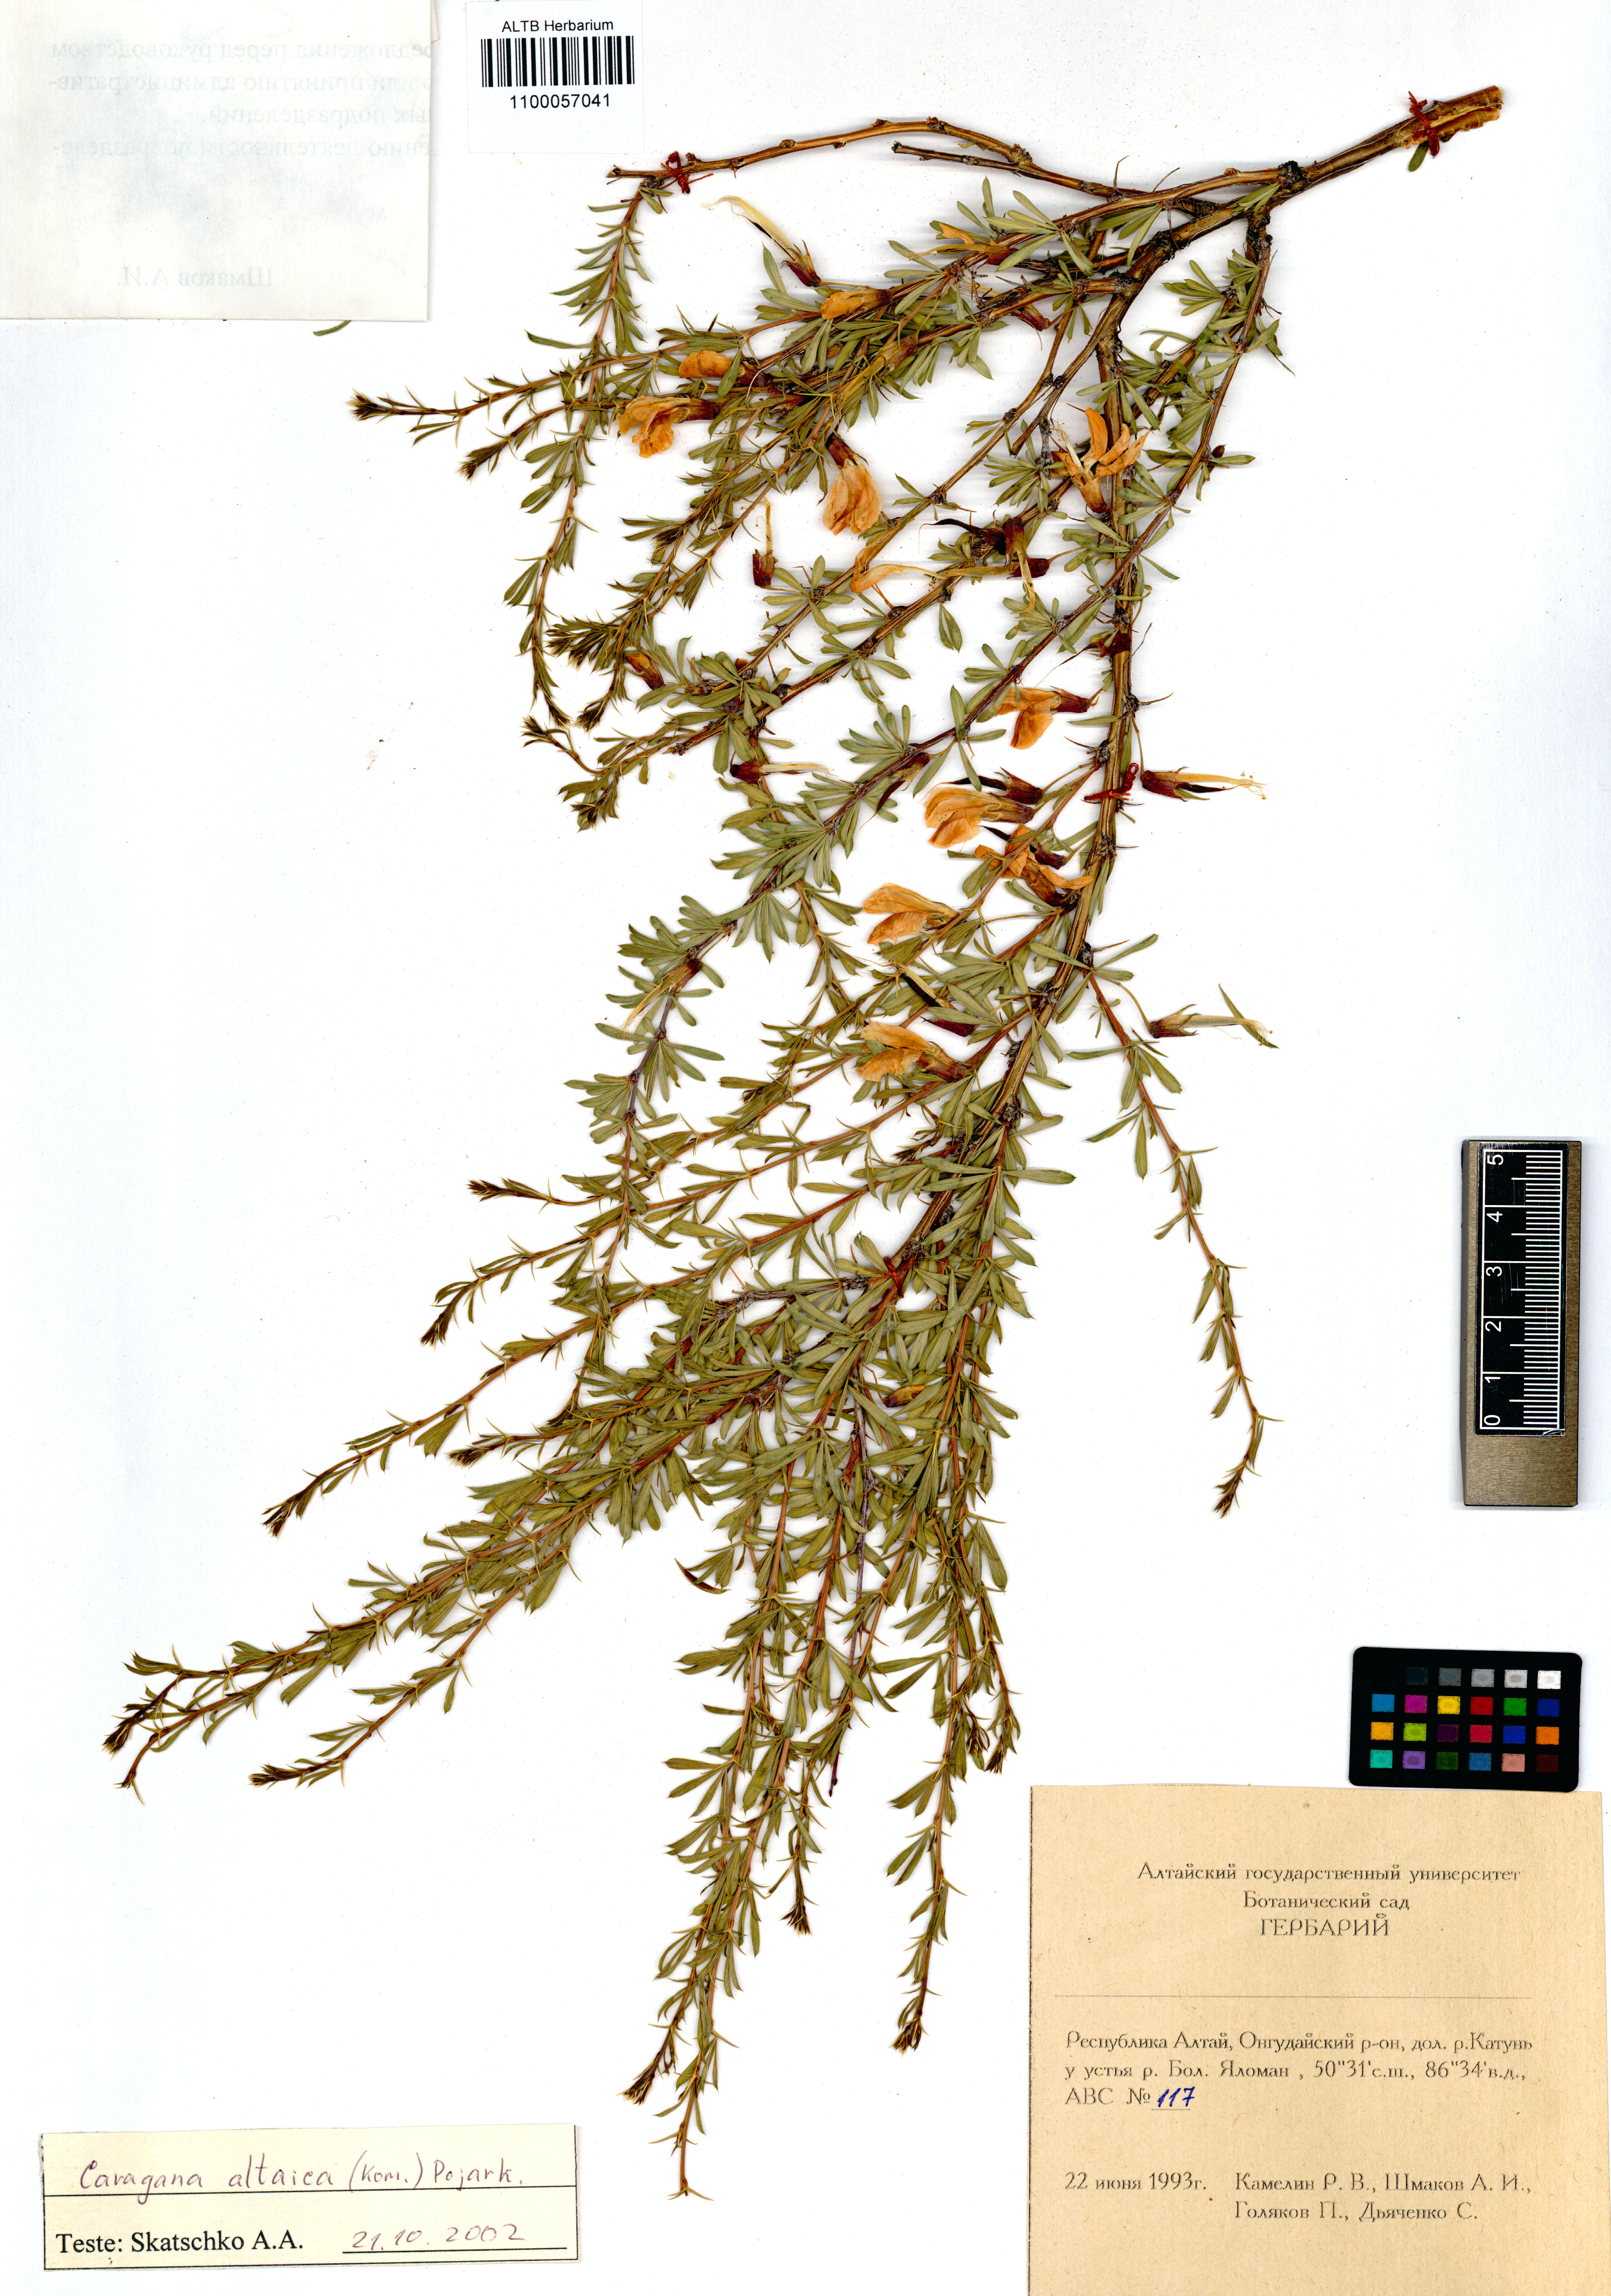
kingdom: Plantae
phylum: Tracheophyta
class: Magnoliopsida
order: Fabales
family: Fabaceae
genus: Caragana
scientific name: Caragana pygmaea
